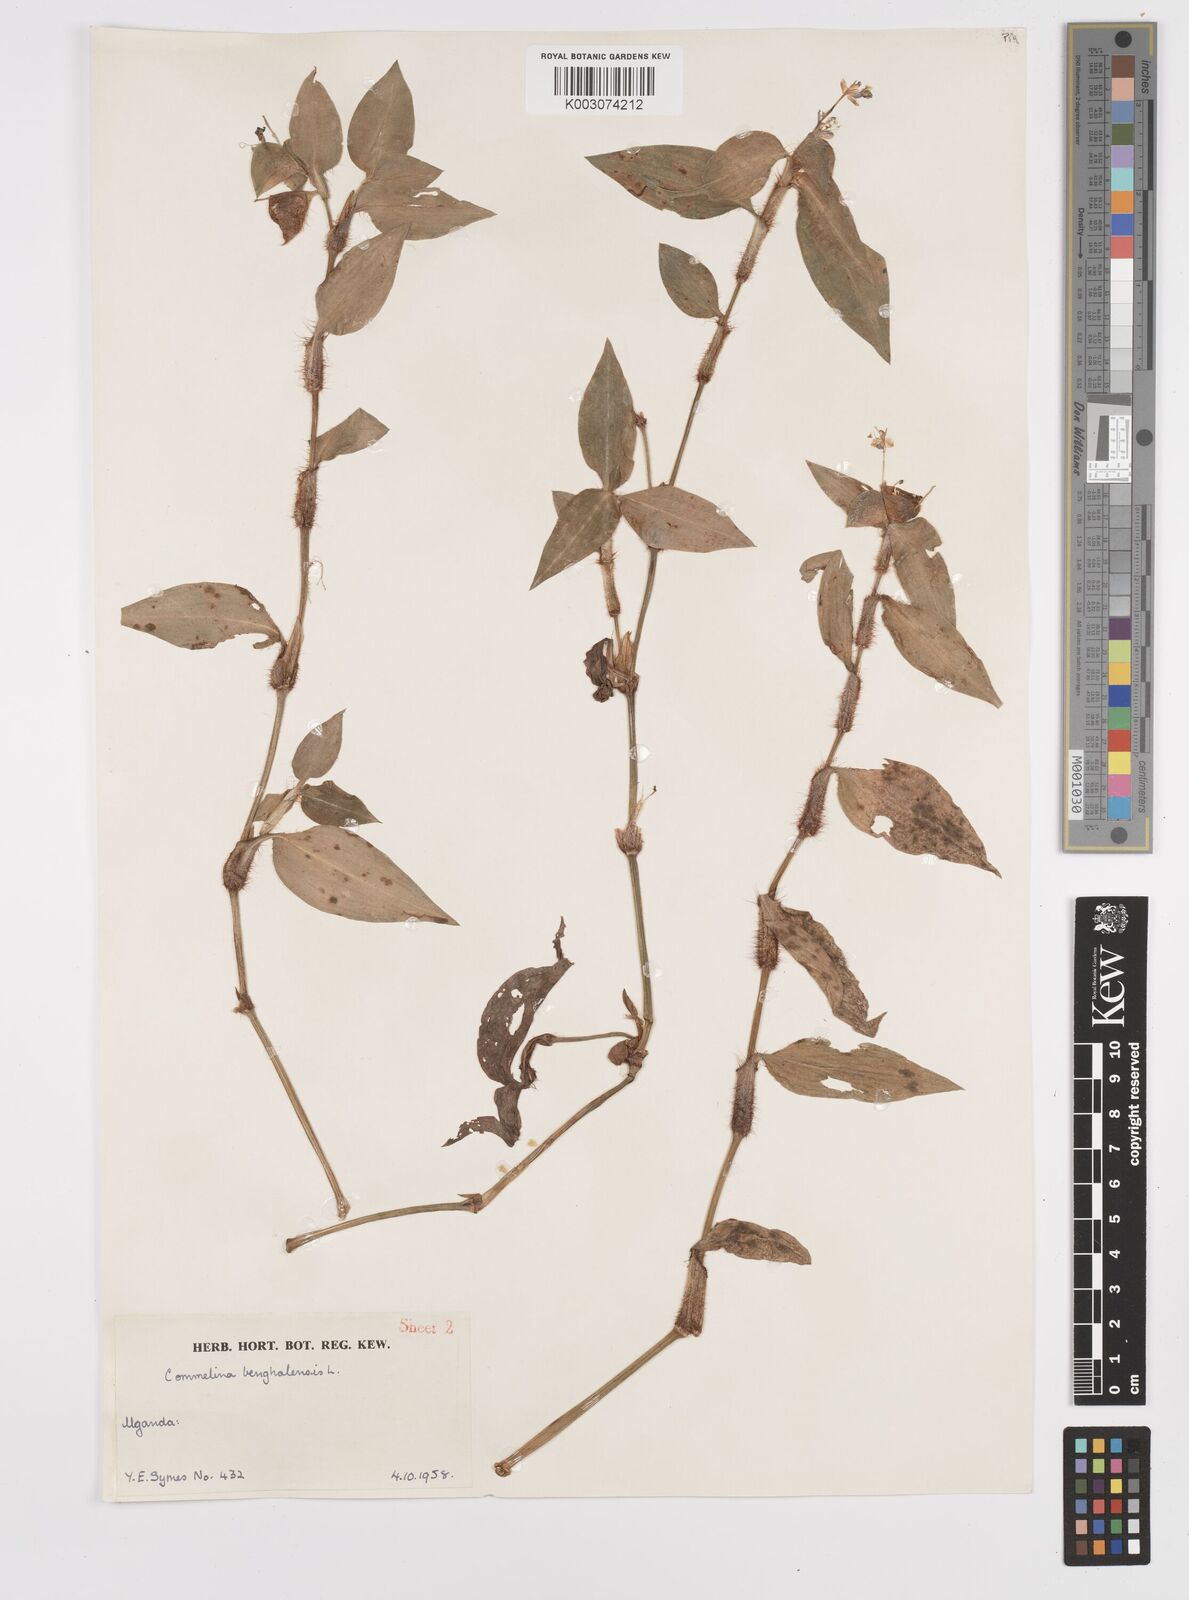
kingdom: Plantae
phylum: Tracheophyta
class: Liliopsida
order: Commelinales
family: Commelinaceae
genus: Commelina
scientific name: Commelina benghalensis
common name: Jio
